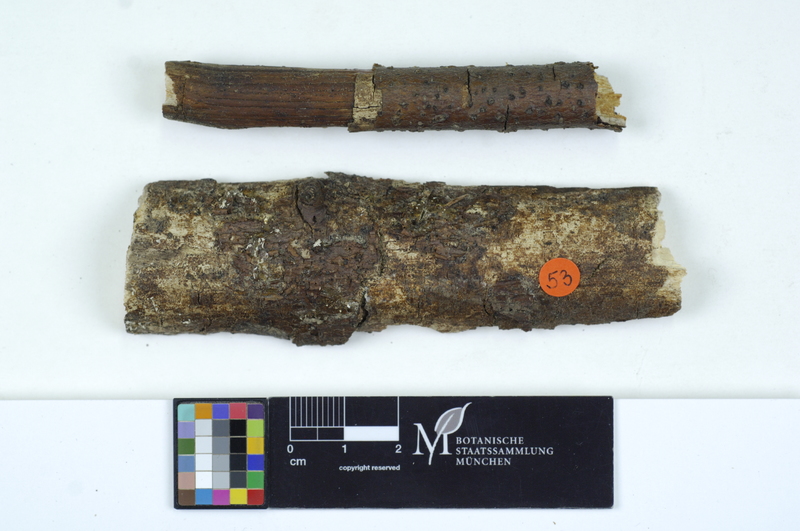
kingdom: Fungi
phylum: Basidiomycota
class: Agaricomycetes
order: Auriculariales
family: Auriculariaceae
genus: Exidia
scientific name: Exidia thuretiana
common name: White brain
